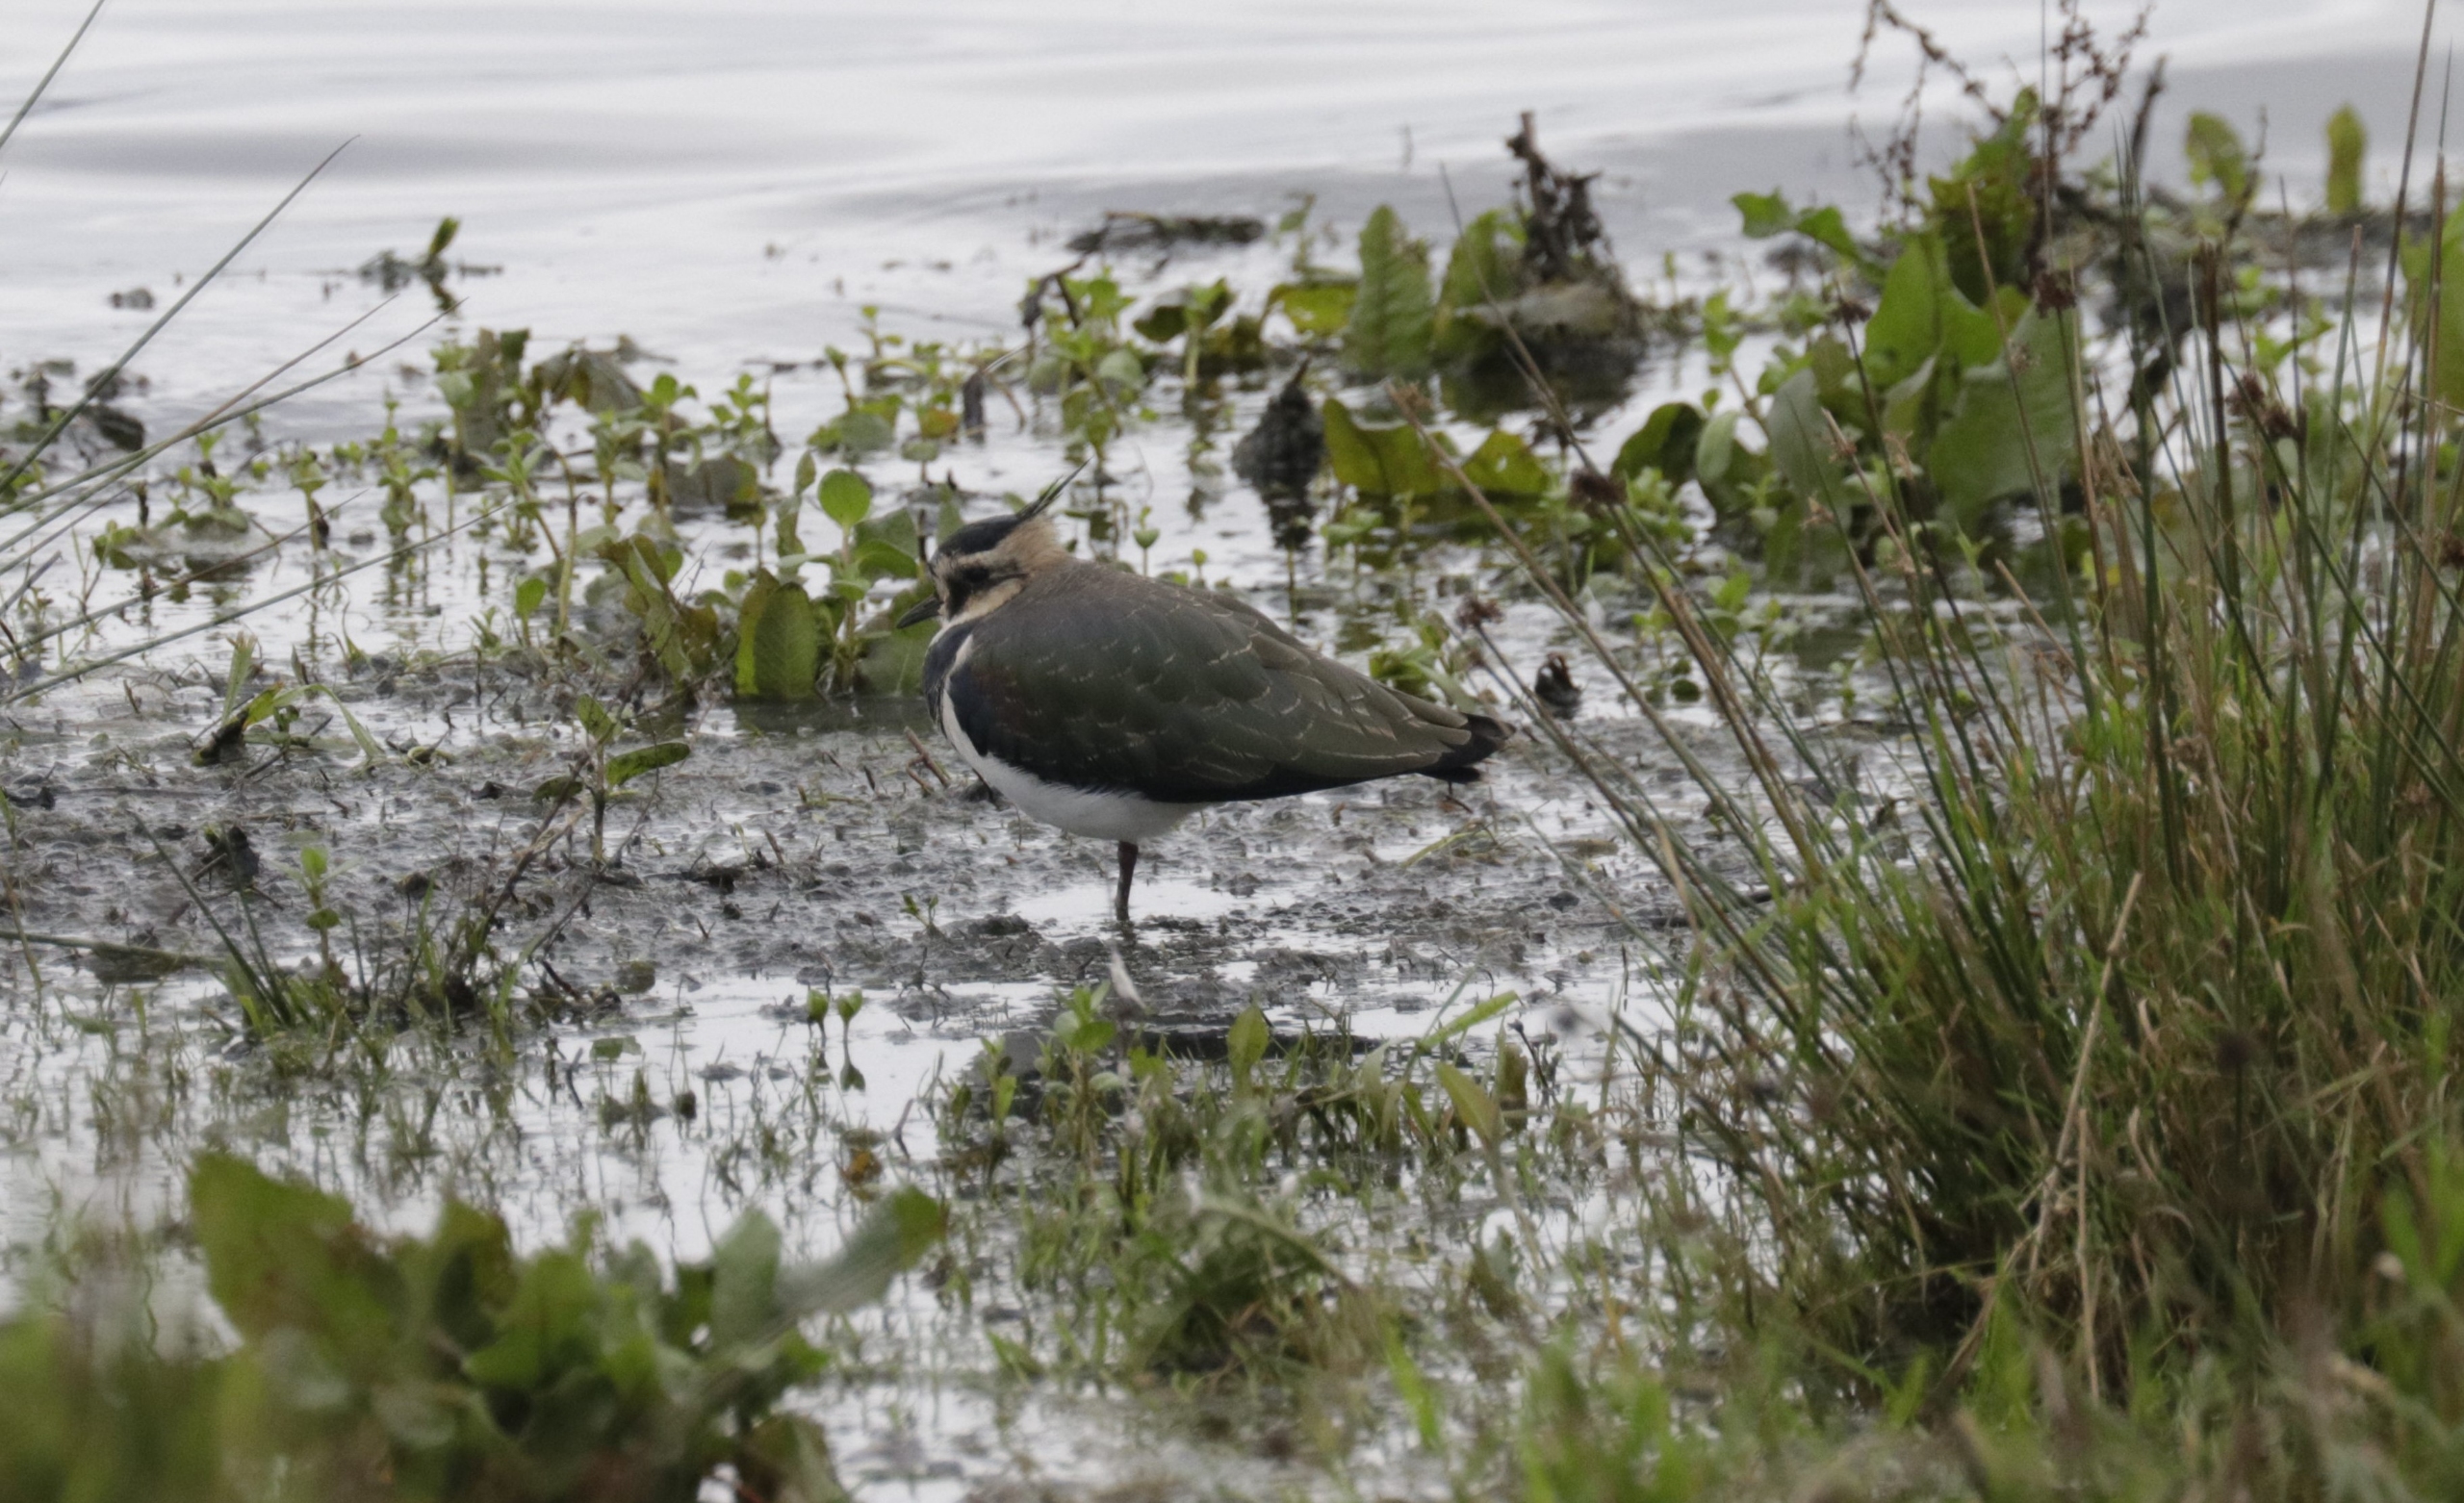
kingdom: Animalia
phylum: Chordata
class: Aves
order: Charadriiformes
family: Charadriidae
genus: Vanellus
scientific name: Vanellus vanellus
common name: Vibe
